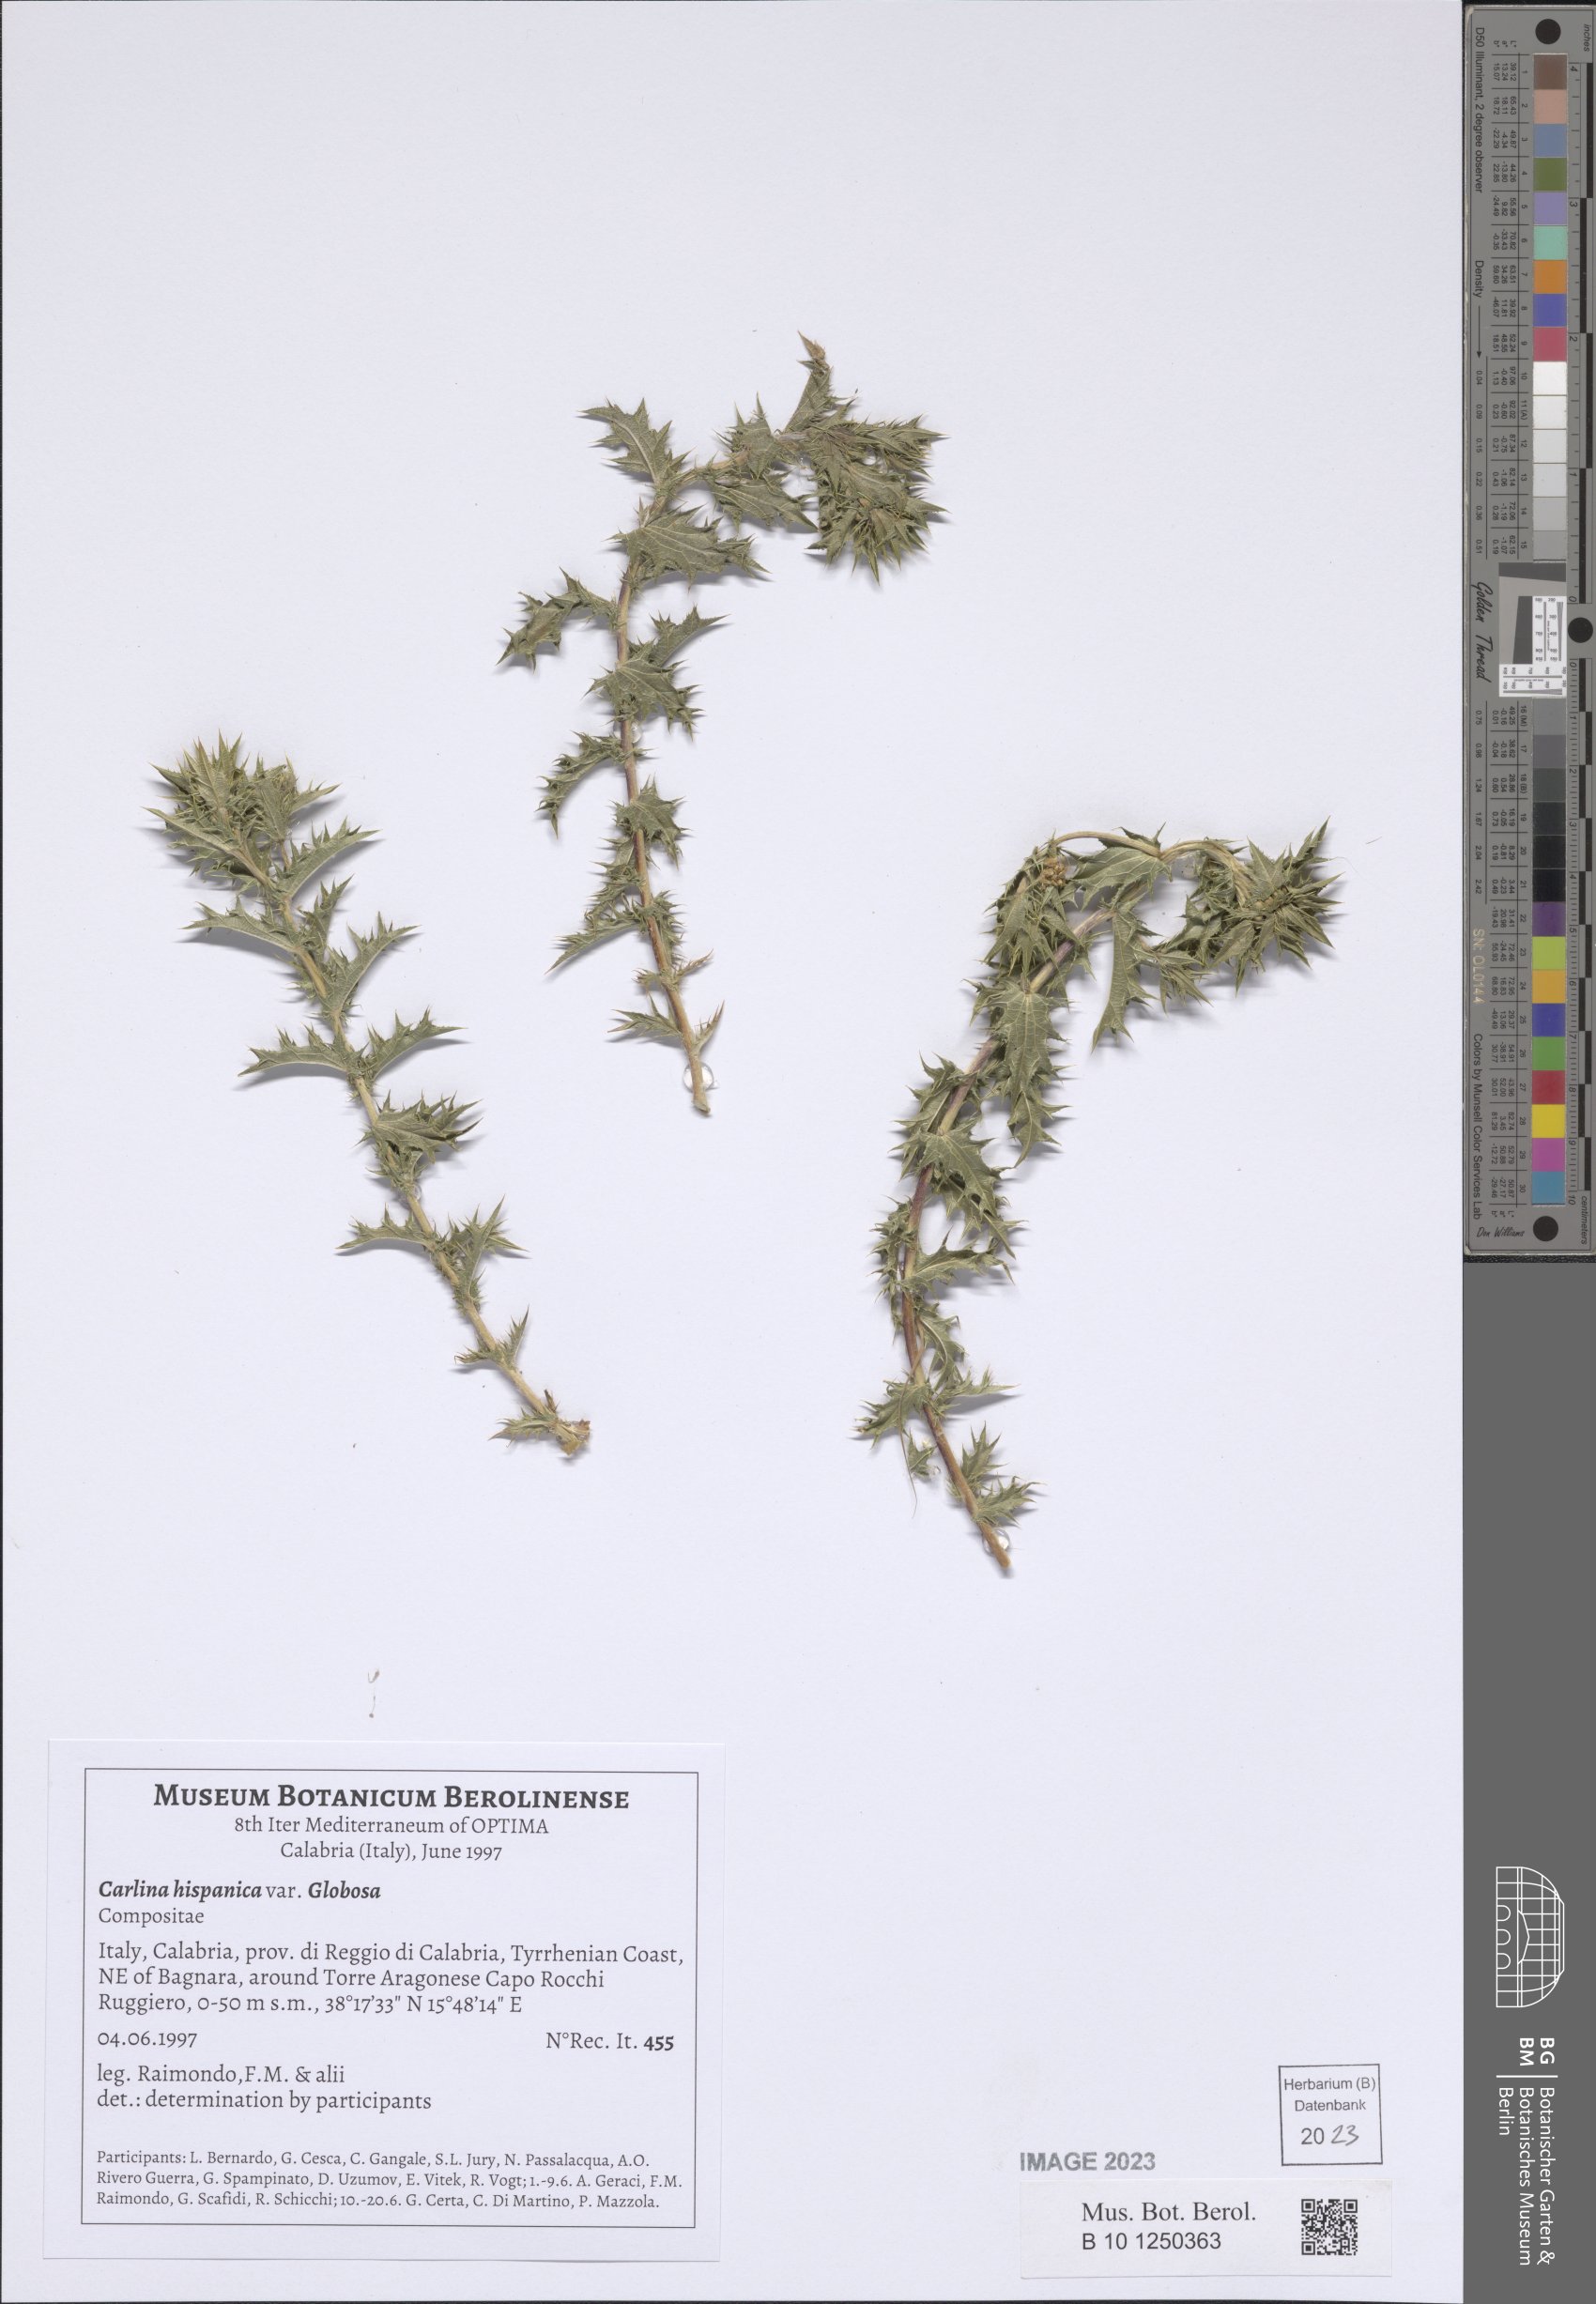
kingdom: Plantae
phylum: Tracheophyta
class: Magnoliopsida
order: Asterales
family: Asteraceae
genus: Carlina
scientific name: Carlina hispanica
